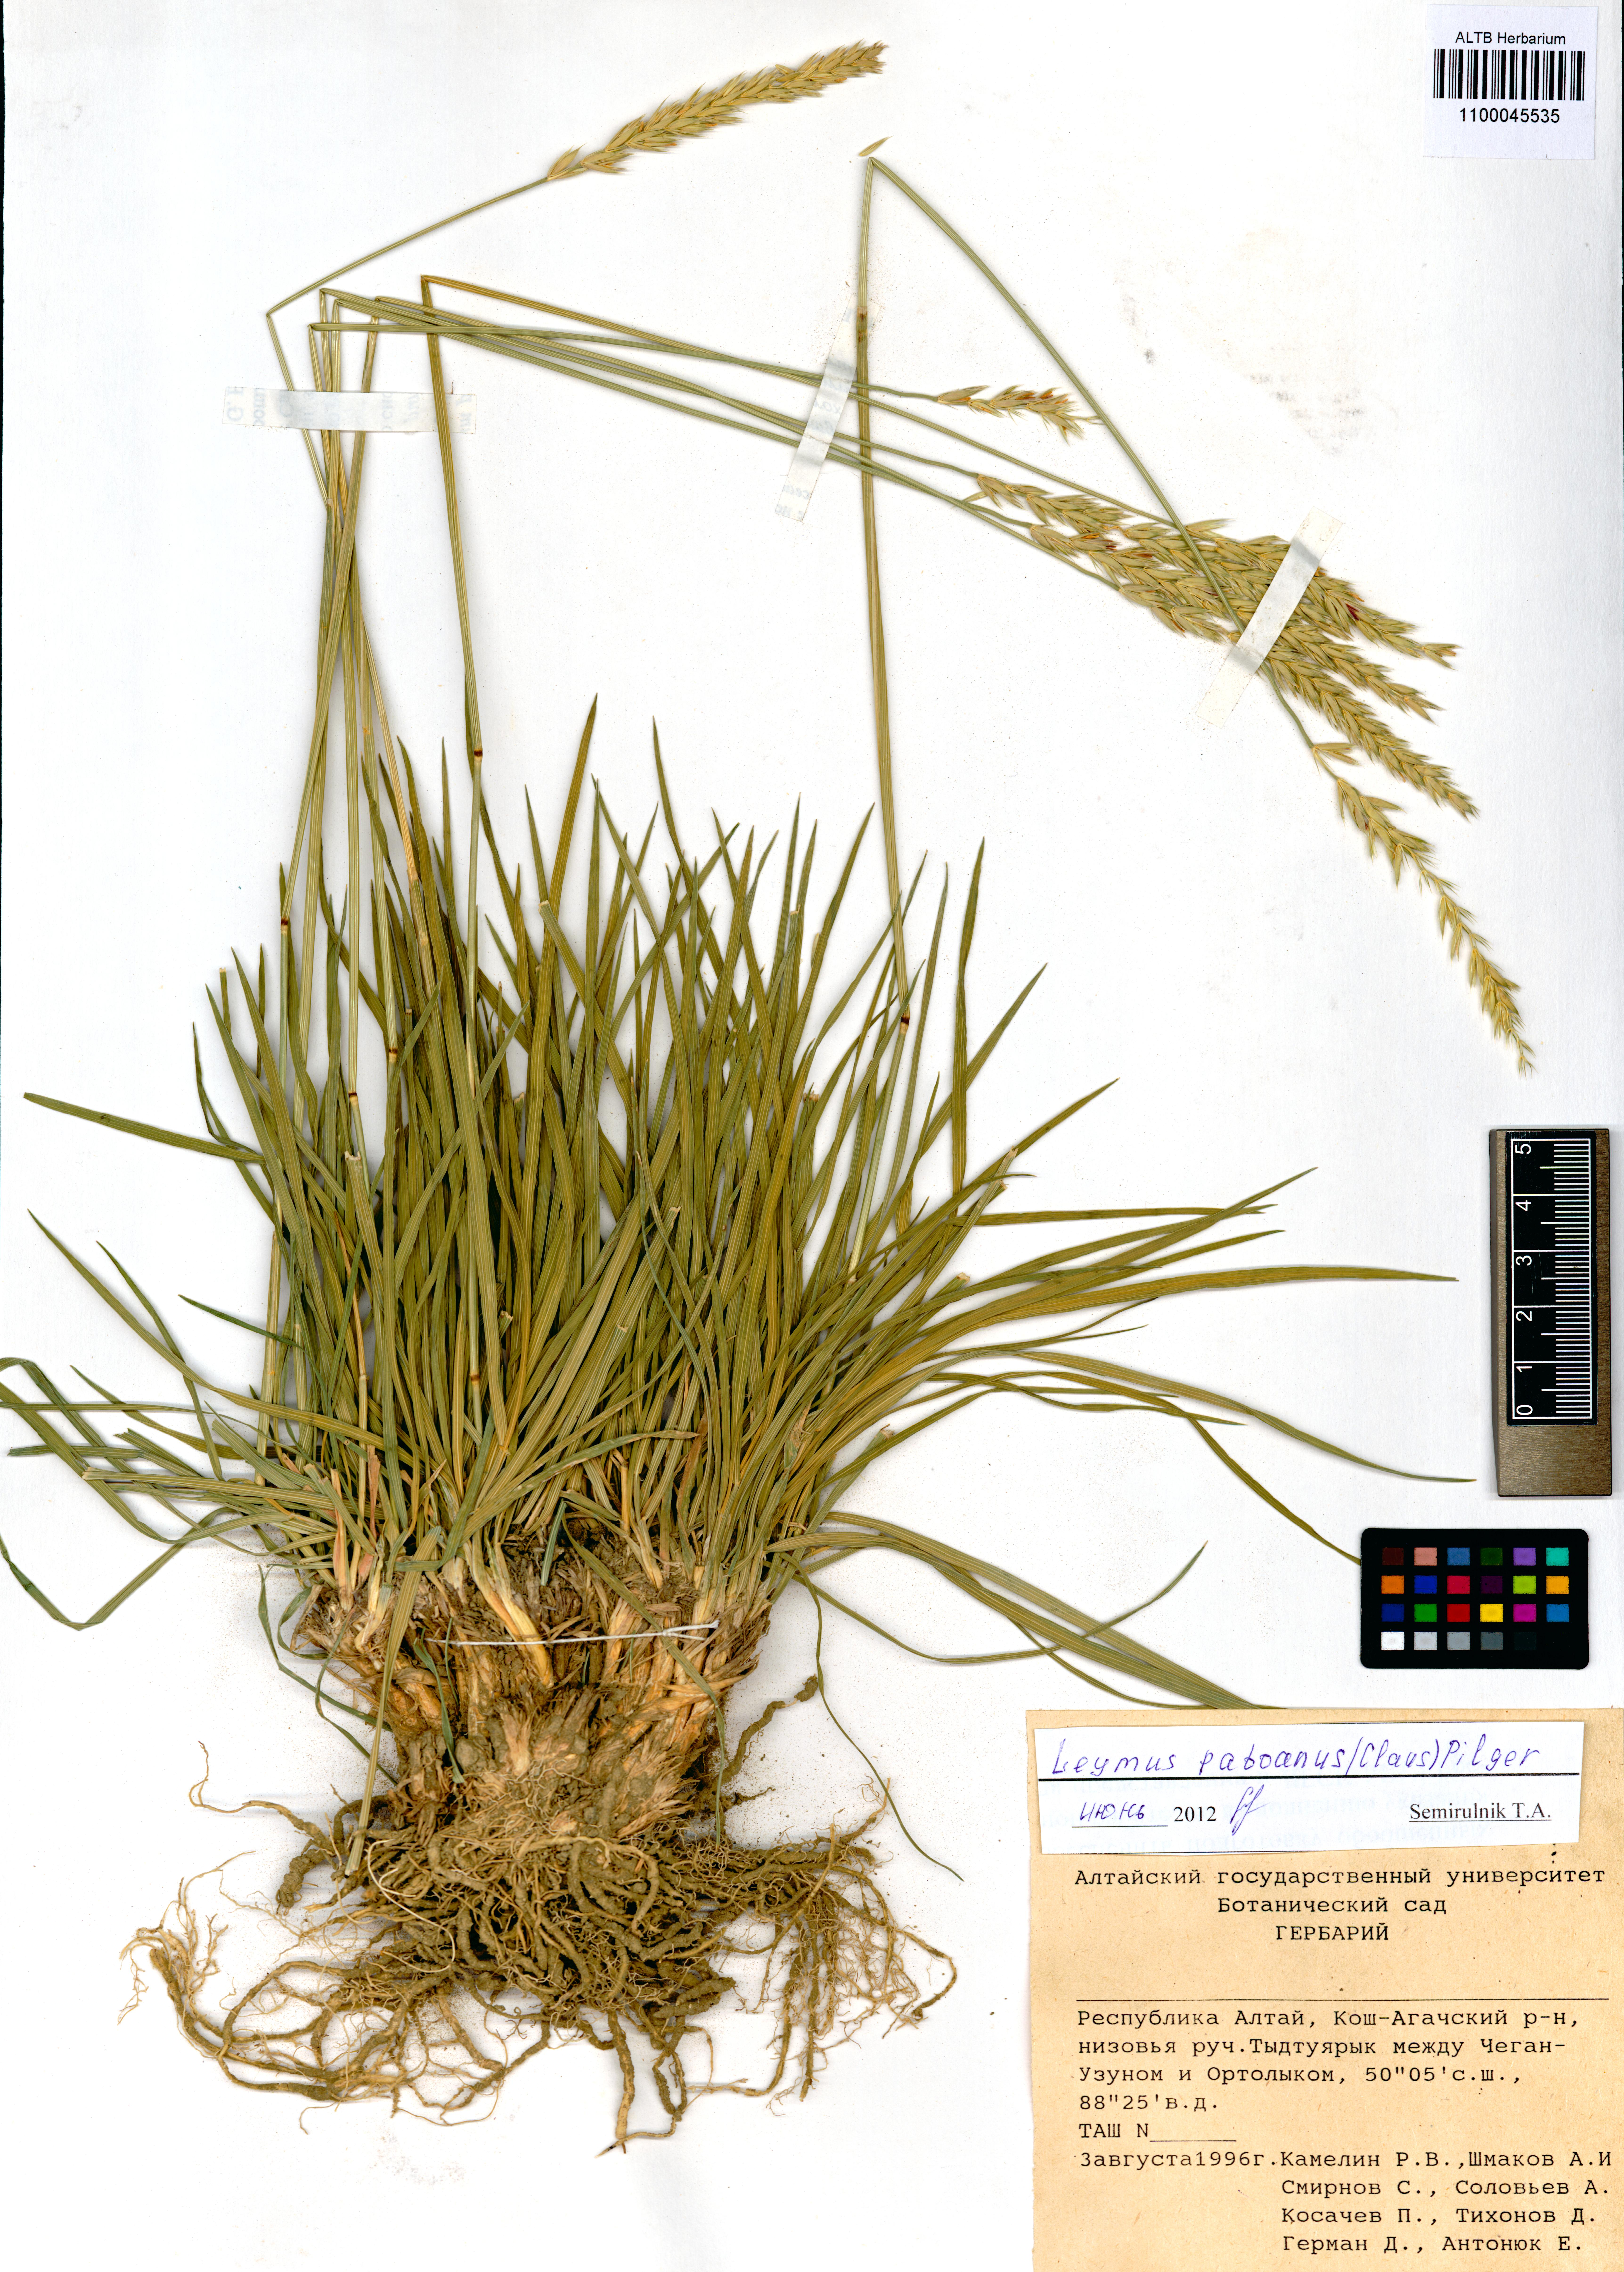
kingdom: Plantae
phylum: Tracheophyta
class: Liliopsida
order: Poales
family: Poaceae
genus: Leymus
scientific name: Leymus paboanus
